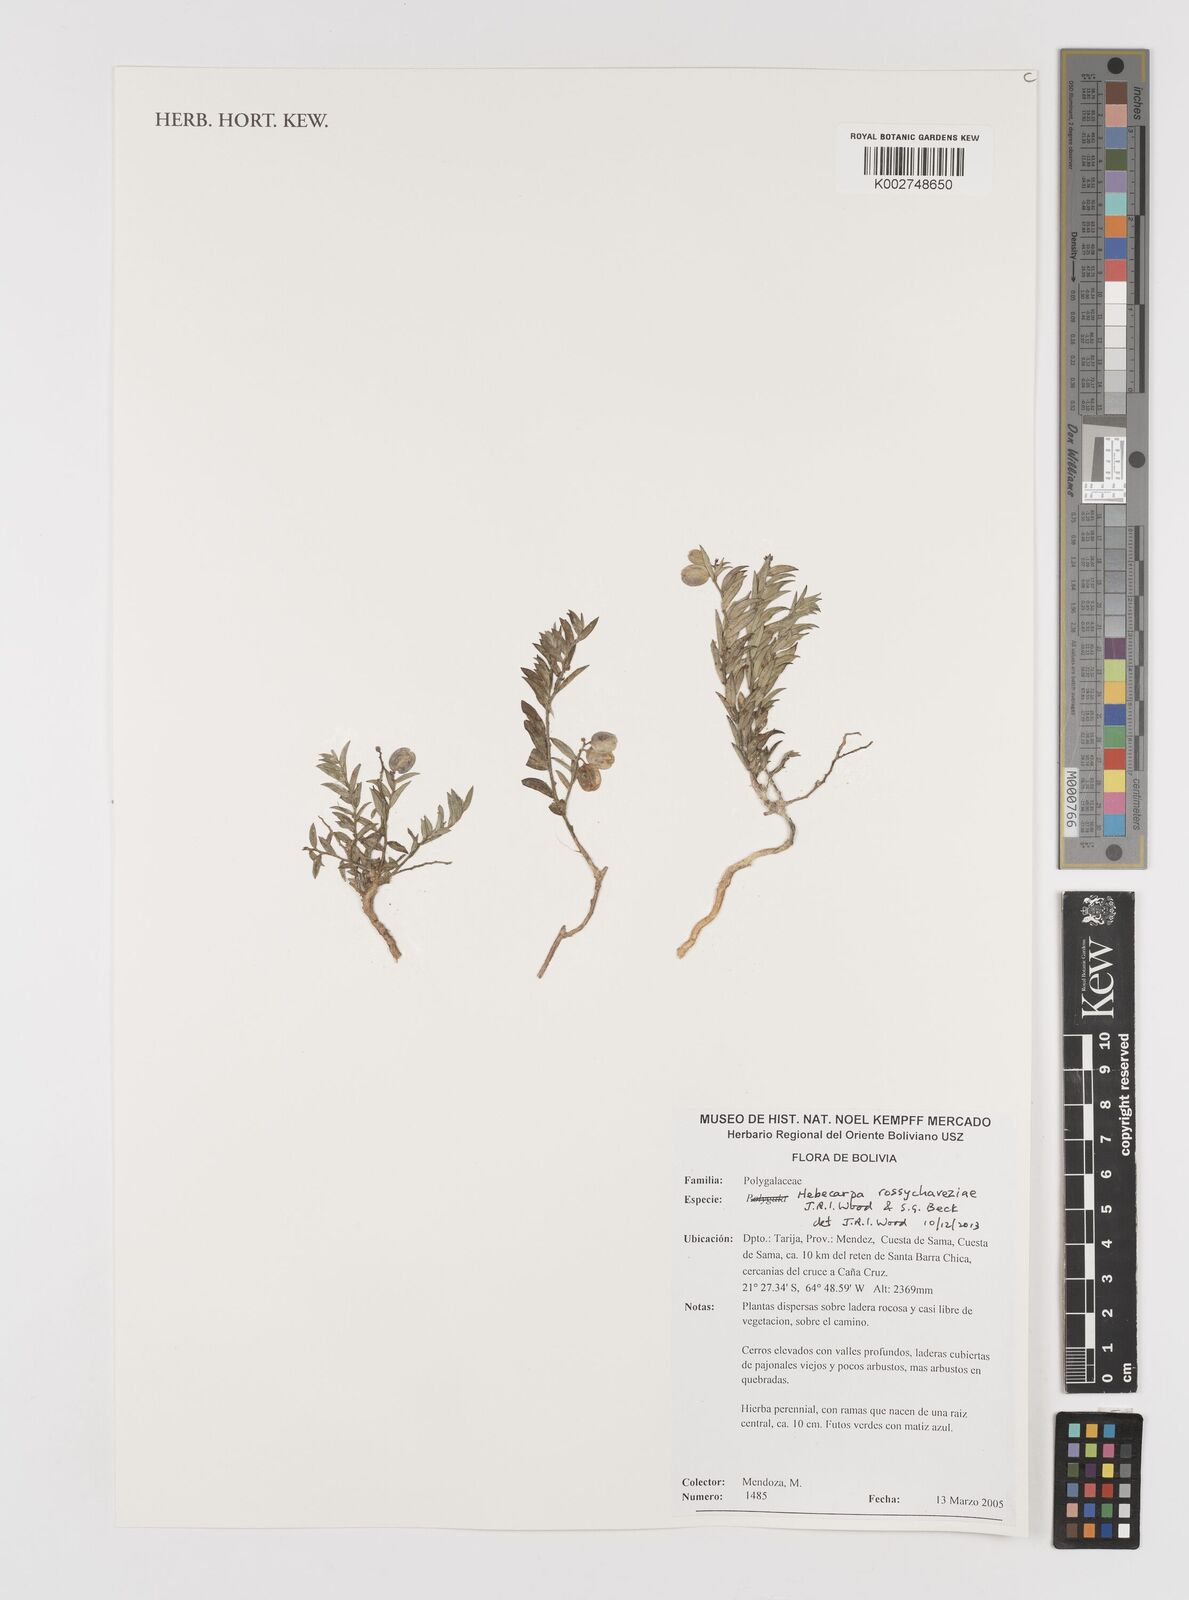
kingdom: Plantae
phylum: Tracheophyta
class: Magnoliopsida
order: Fabales
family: Polygalaceae
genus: Hebecarpa
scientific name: Hebecarpa rossychaveziae
